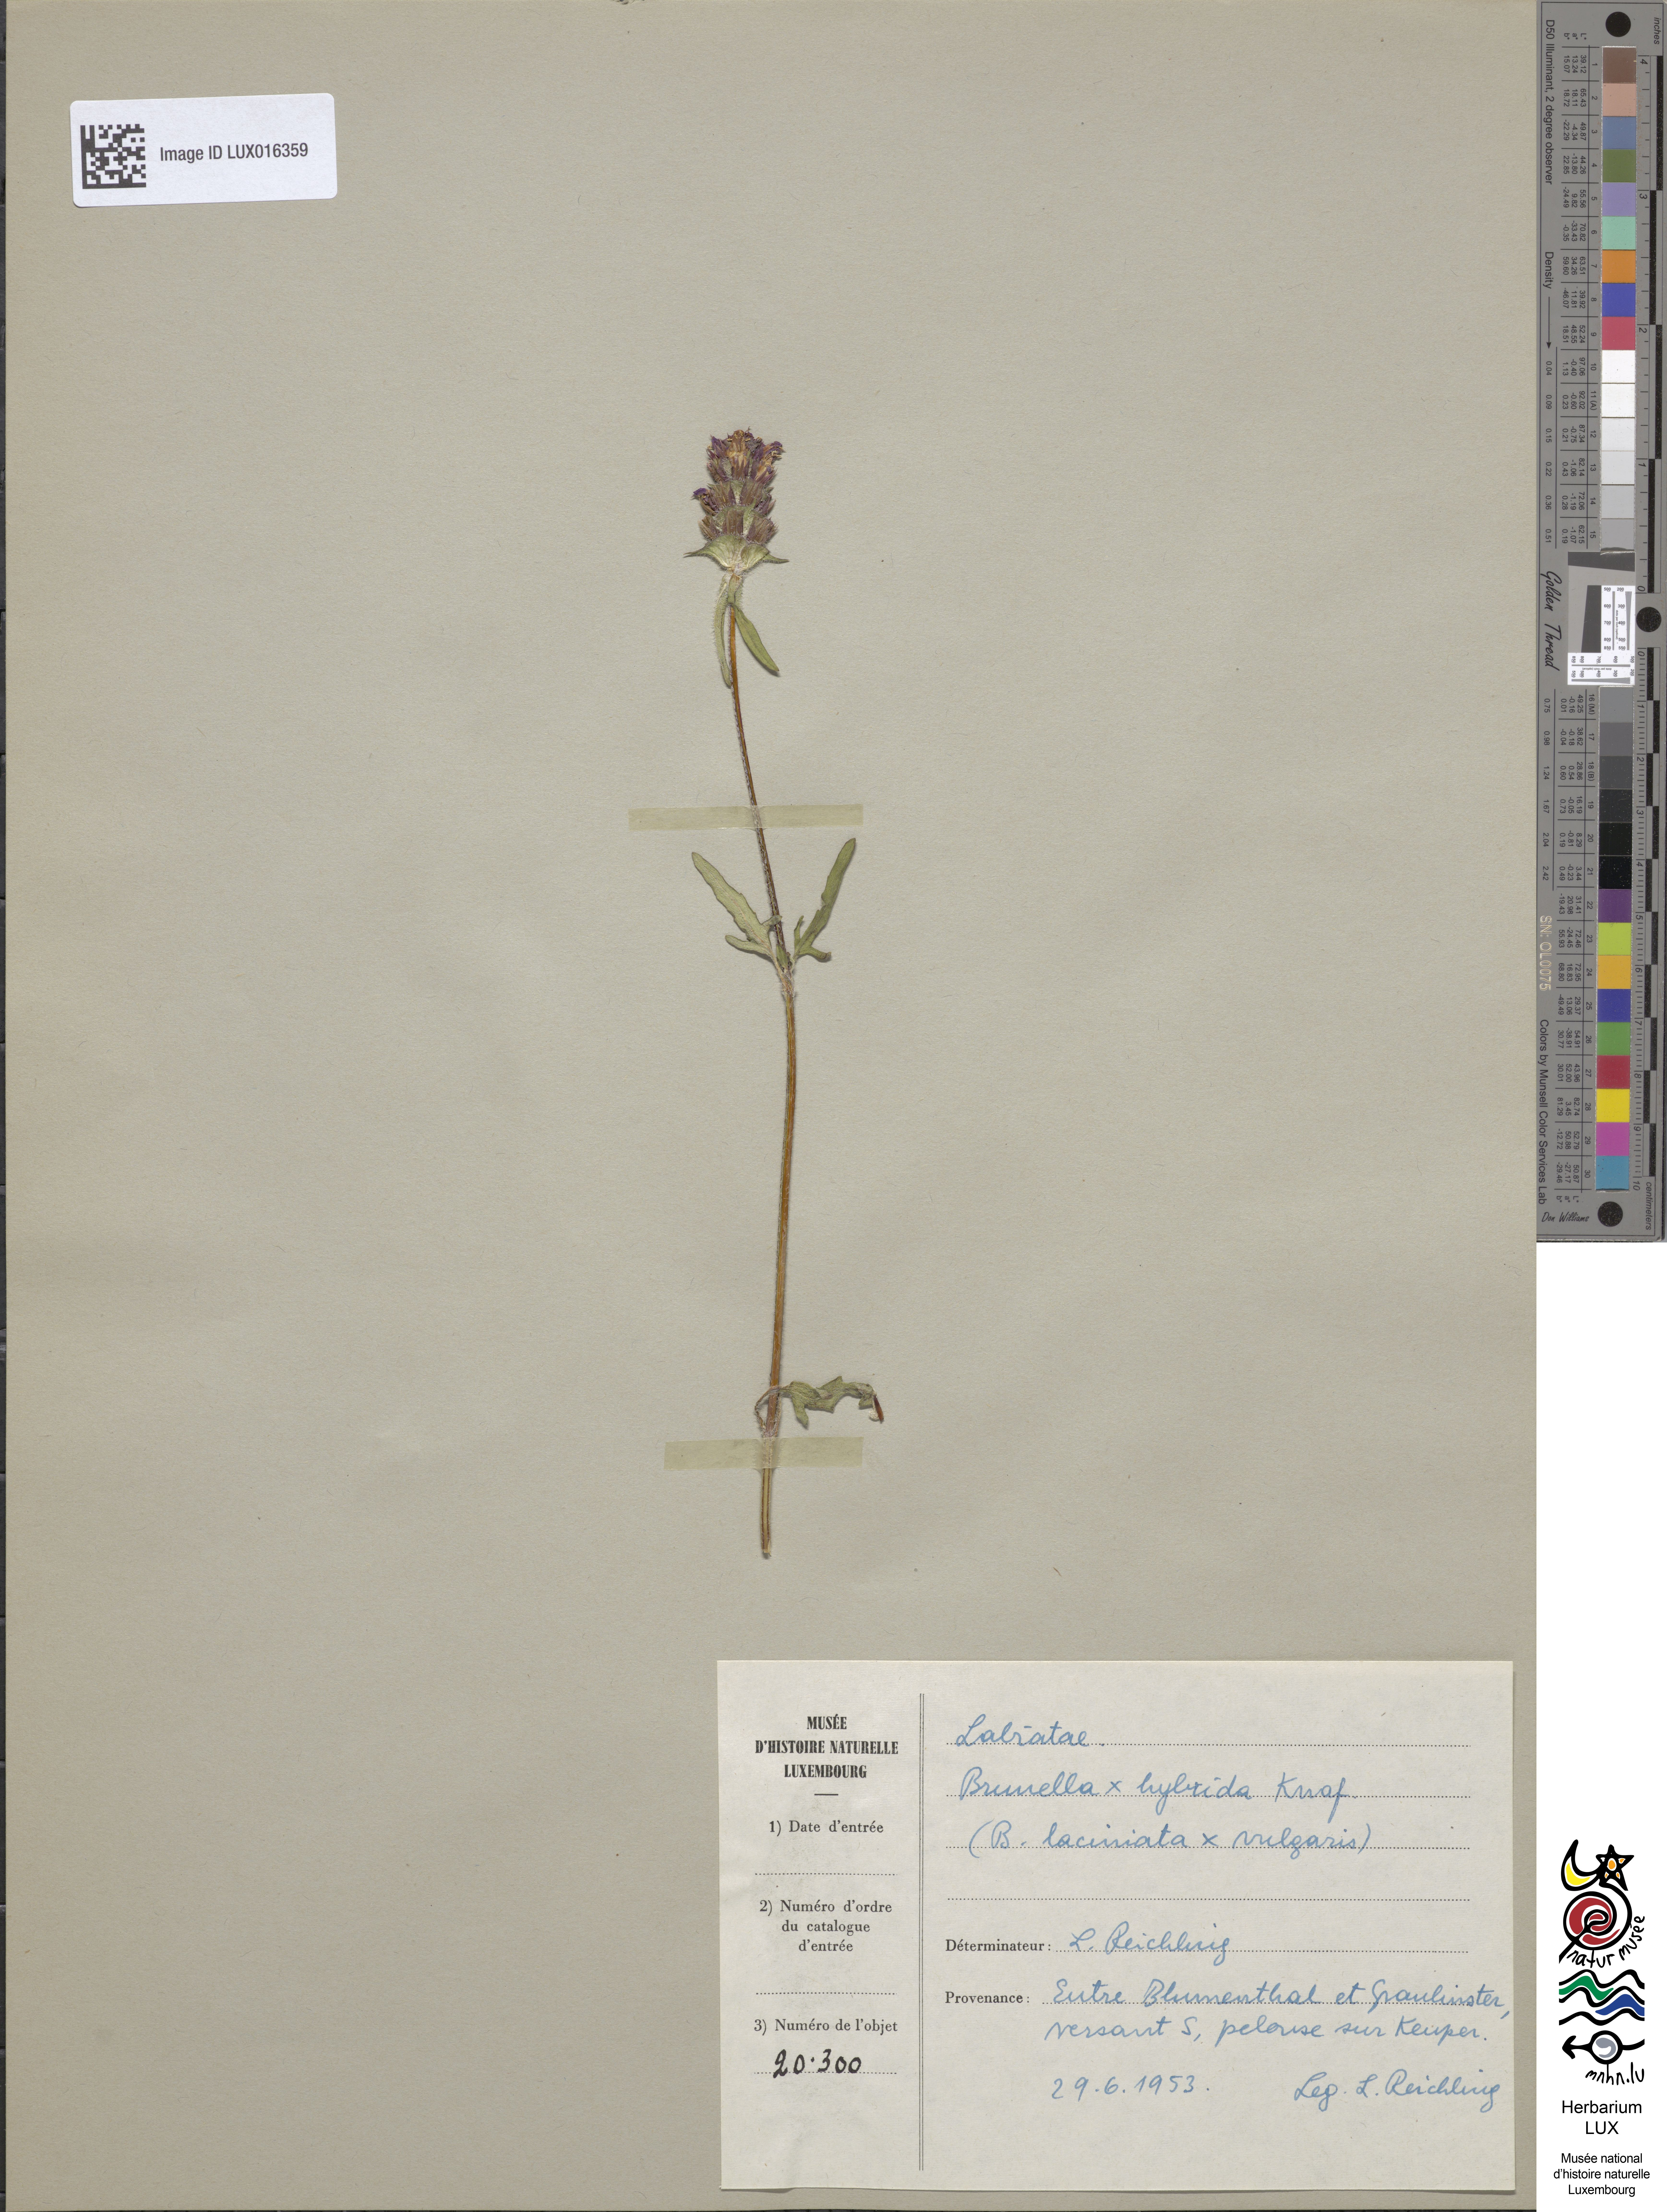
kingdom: Animalia
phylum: Chordata
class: Aves
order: Passeriformes
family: Prunellidae
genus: Prunella
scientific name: Prunella
